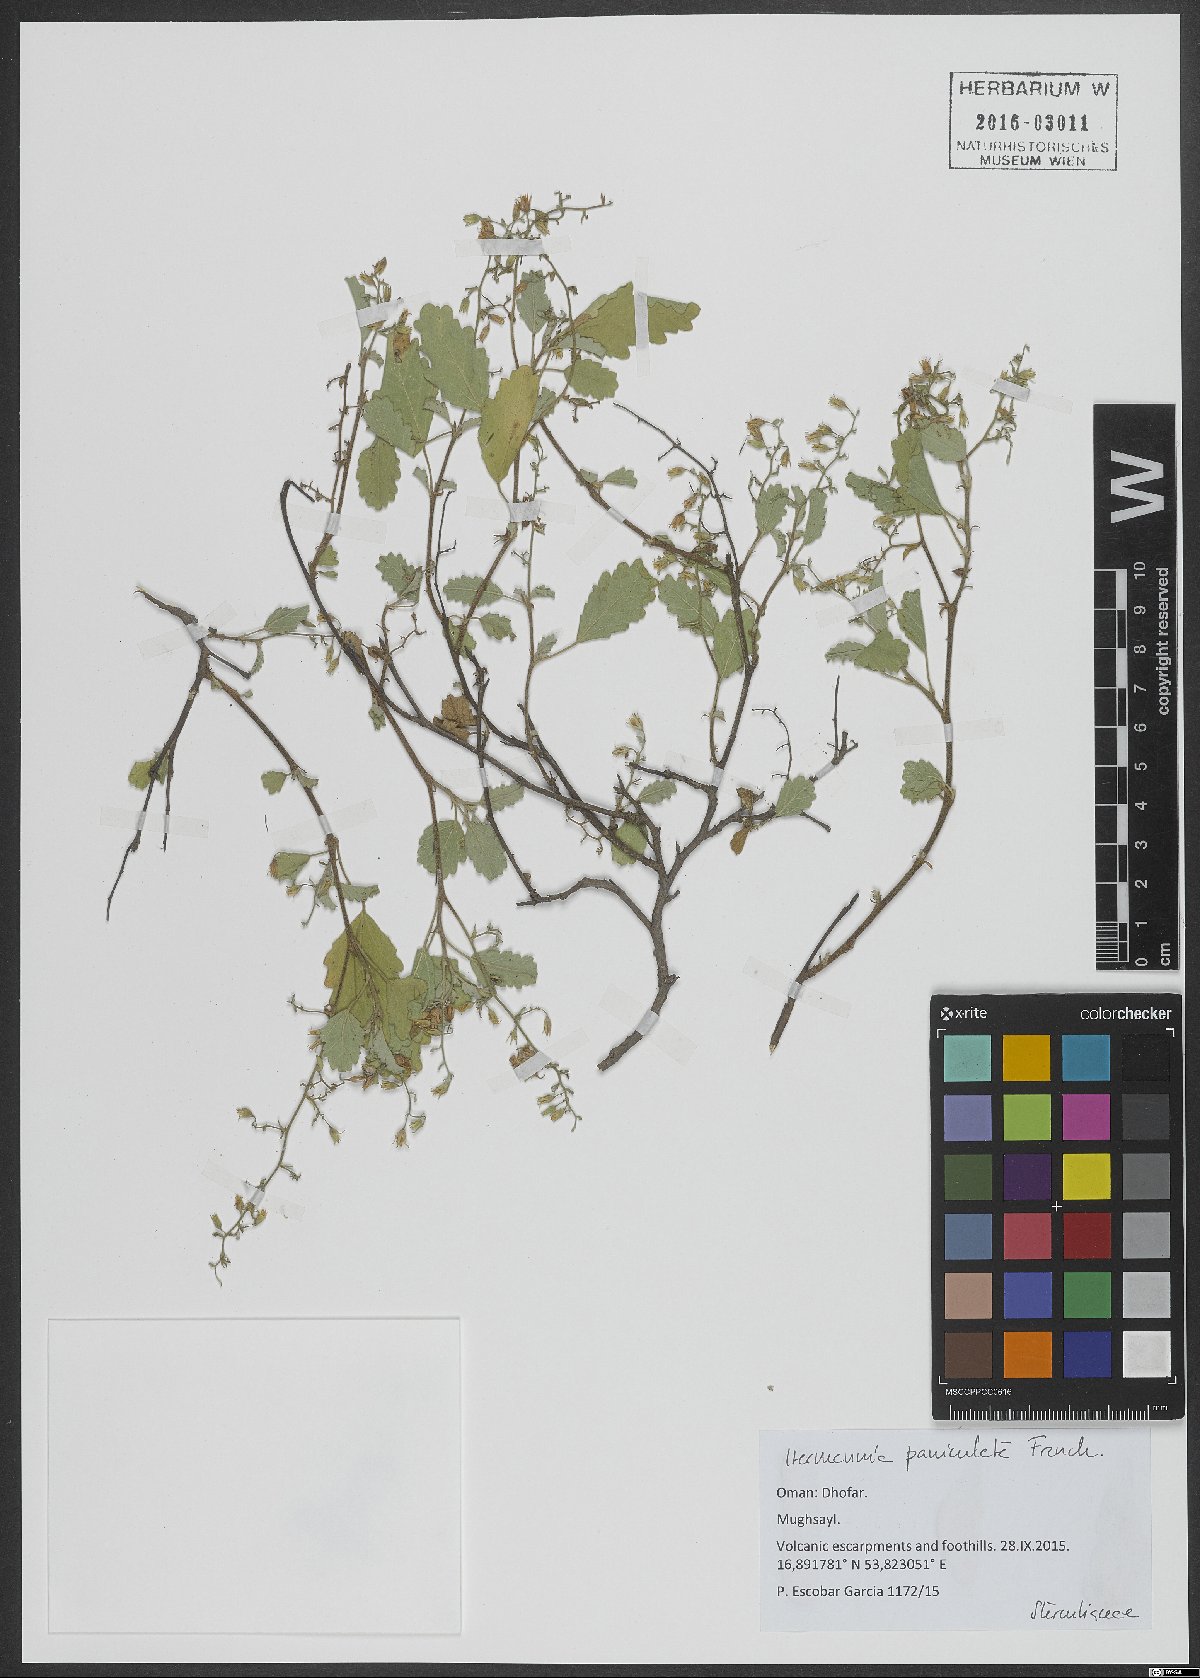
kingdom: Plantae
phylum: Tracheophyta
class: Magnoliopsida
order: Malvales
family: Malvaceae
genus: Hermannia
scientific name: Hermannia paniculata
